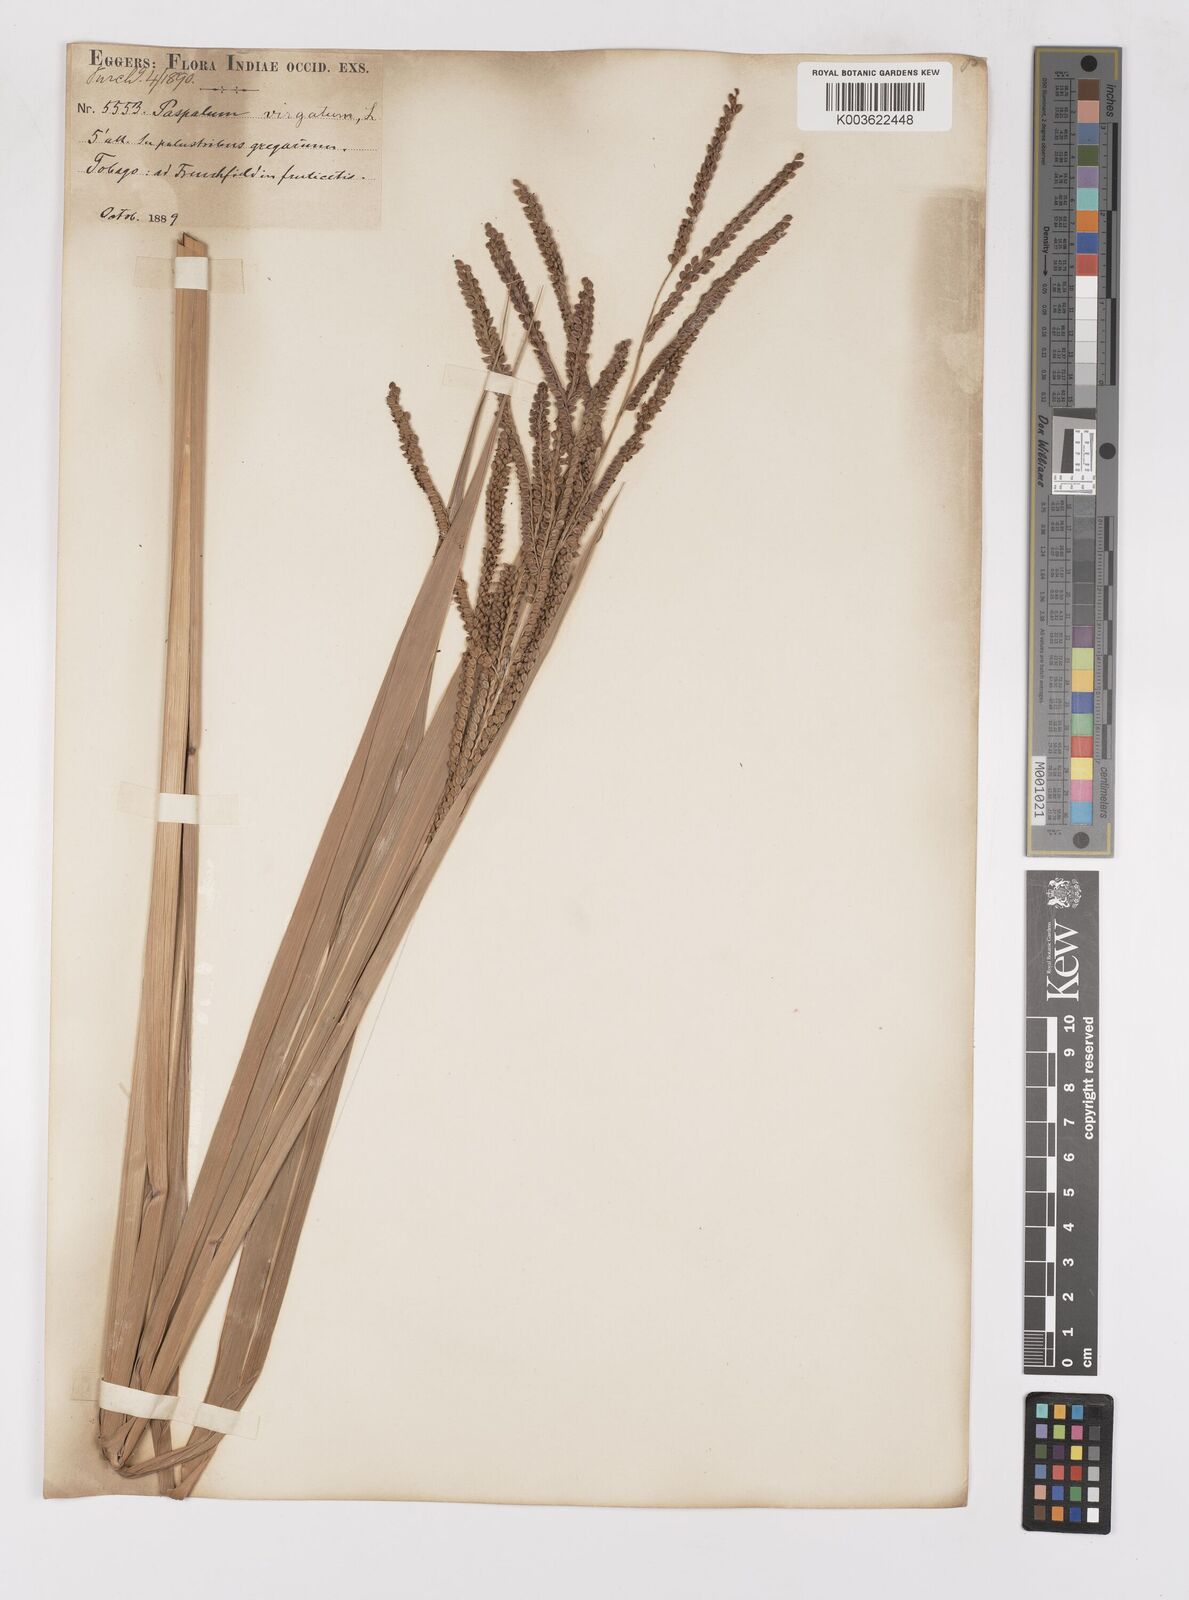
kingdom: Plantae
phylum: Tracheophyta
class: Liliopsida
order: Poales
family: Poaceae
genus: Paspalum
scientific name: Paspalum virgatum
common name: Talquezal
